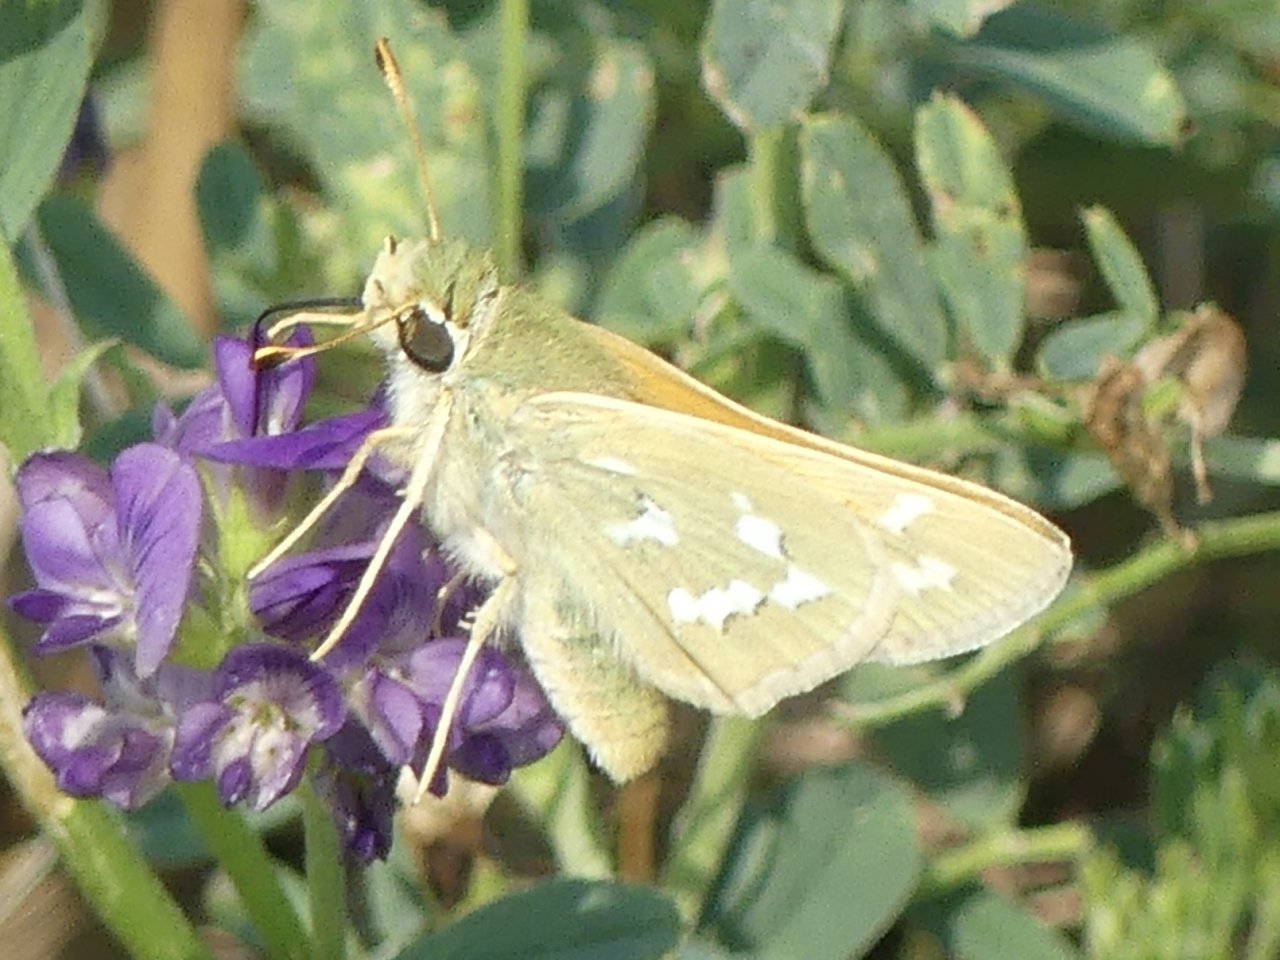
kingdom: Animalia
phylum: Arthropoda
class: Insecta
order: Lepidoptera
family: Hesperiidae
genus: Hesperia
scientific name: Hesperia comma
